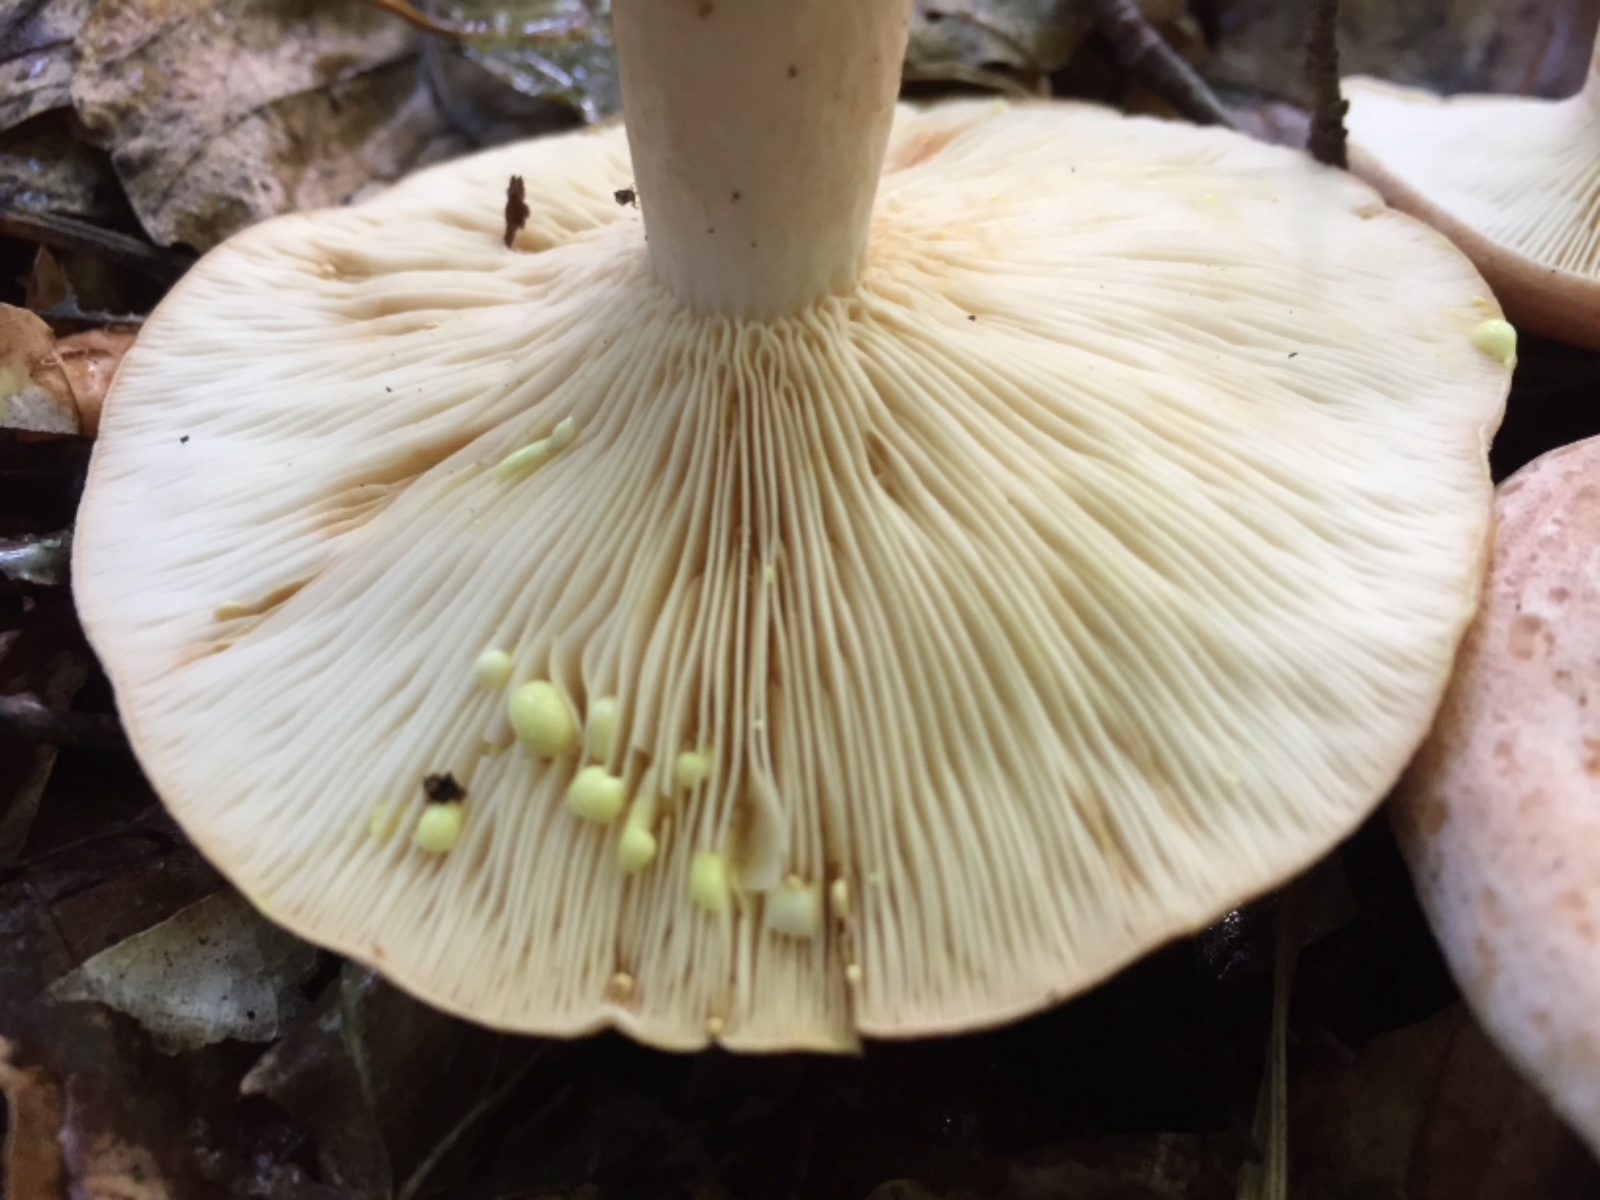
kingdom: Fungi
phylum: Basidiomycota
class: Agaricomycetes
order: Russulales
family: Russulaceae
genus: Lactarius
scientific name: Lactarius chrysorrheus
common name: svovlmælket mælkehat
